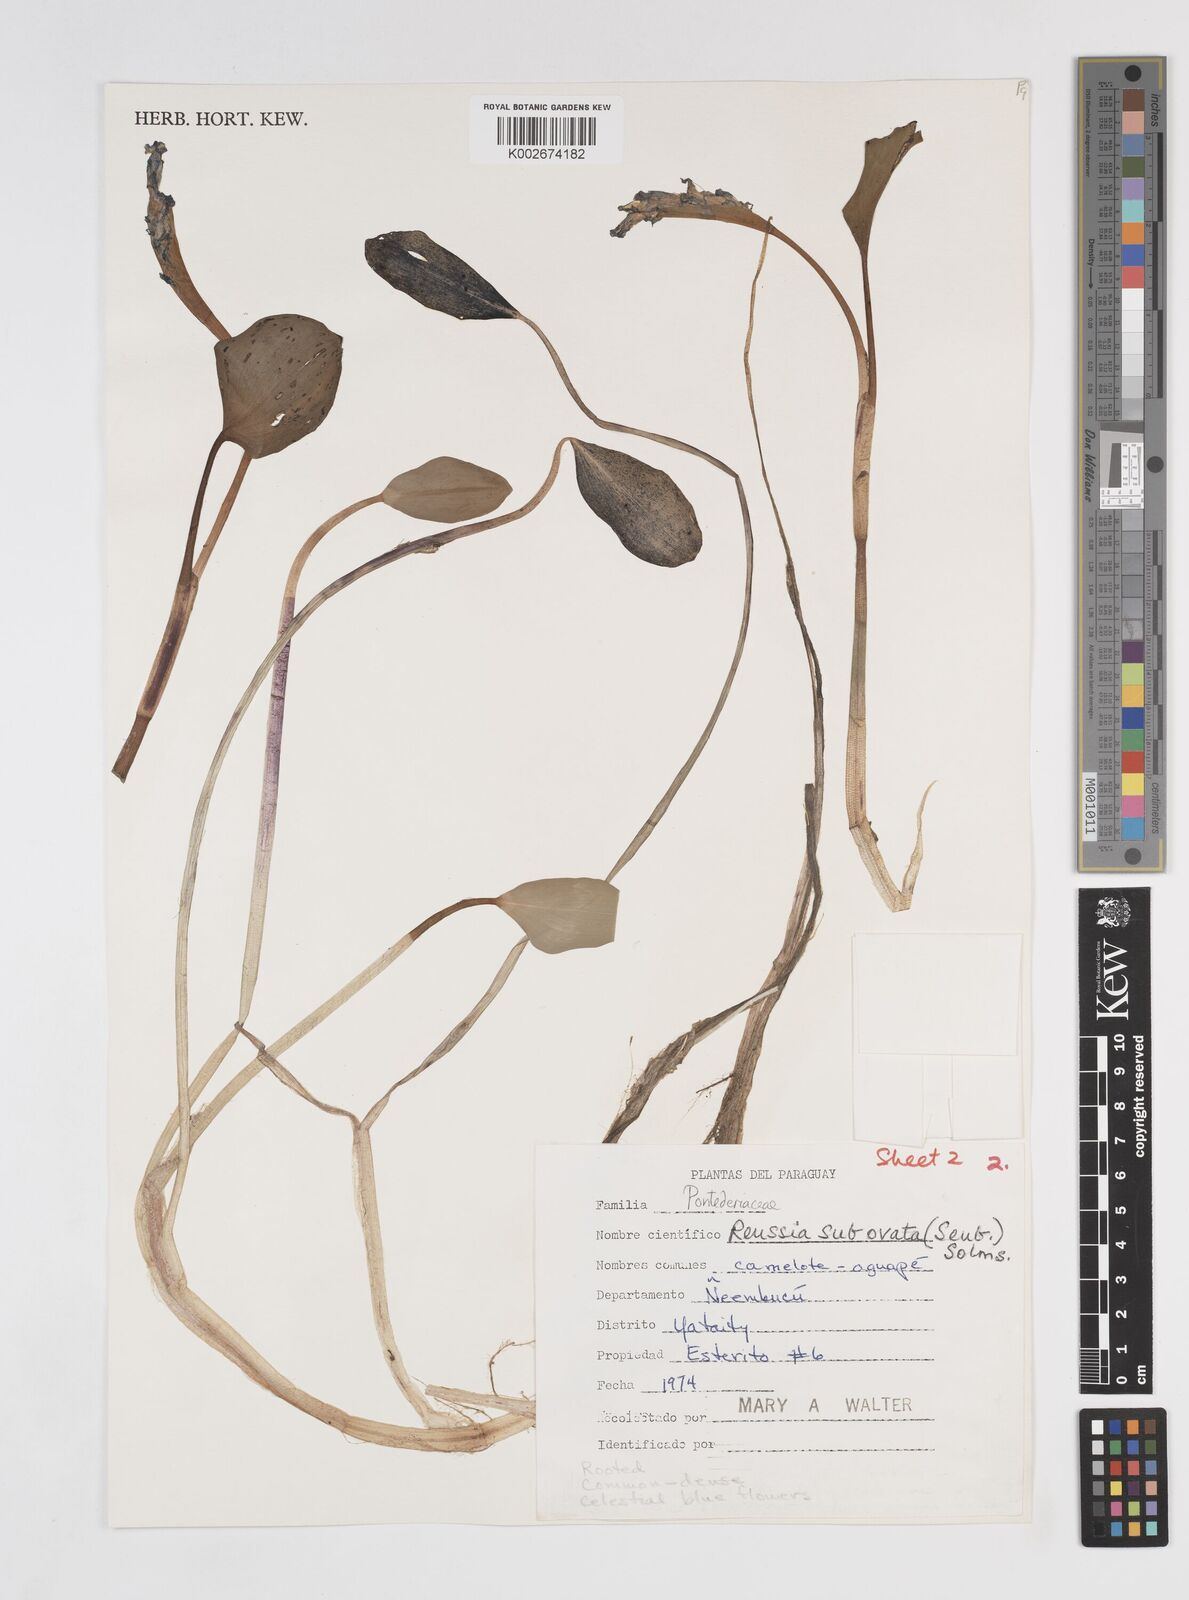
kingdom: Plantae
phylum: Tracheophyta
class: Liliopsida
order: Commelinales
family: Pontederiaceae
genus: Pontederia
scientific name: Pontederia subovata
